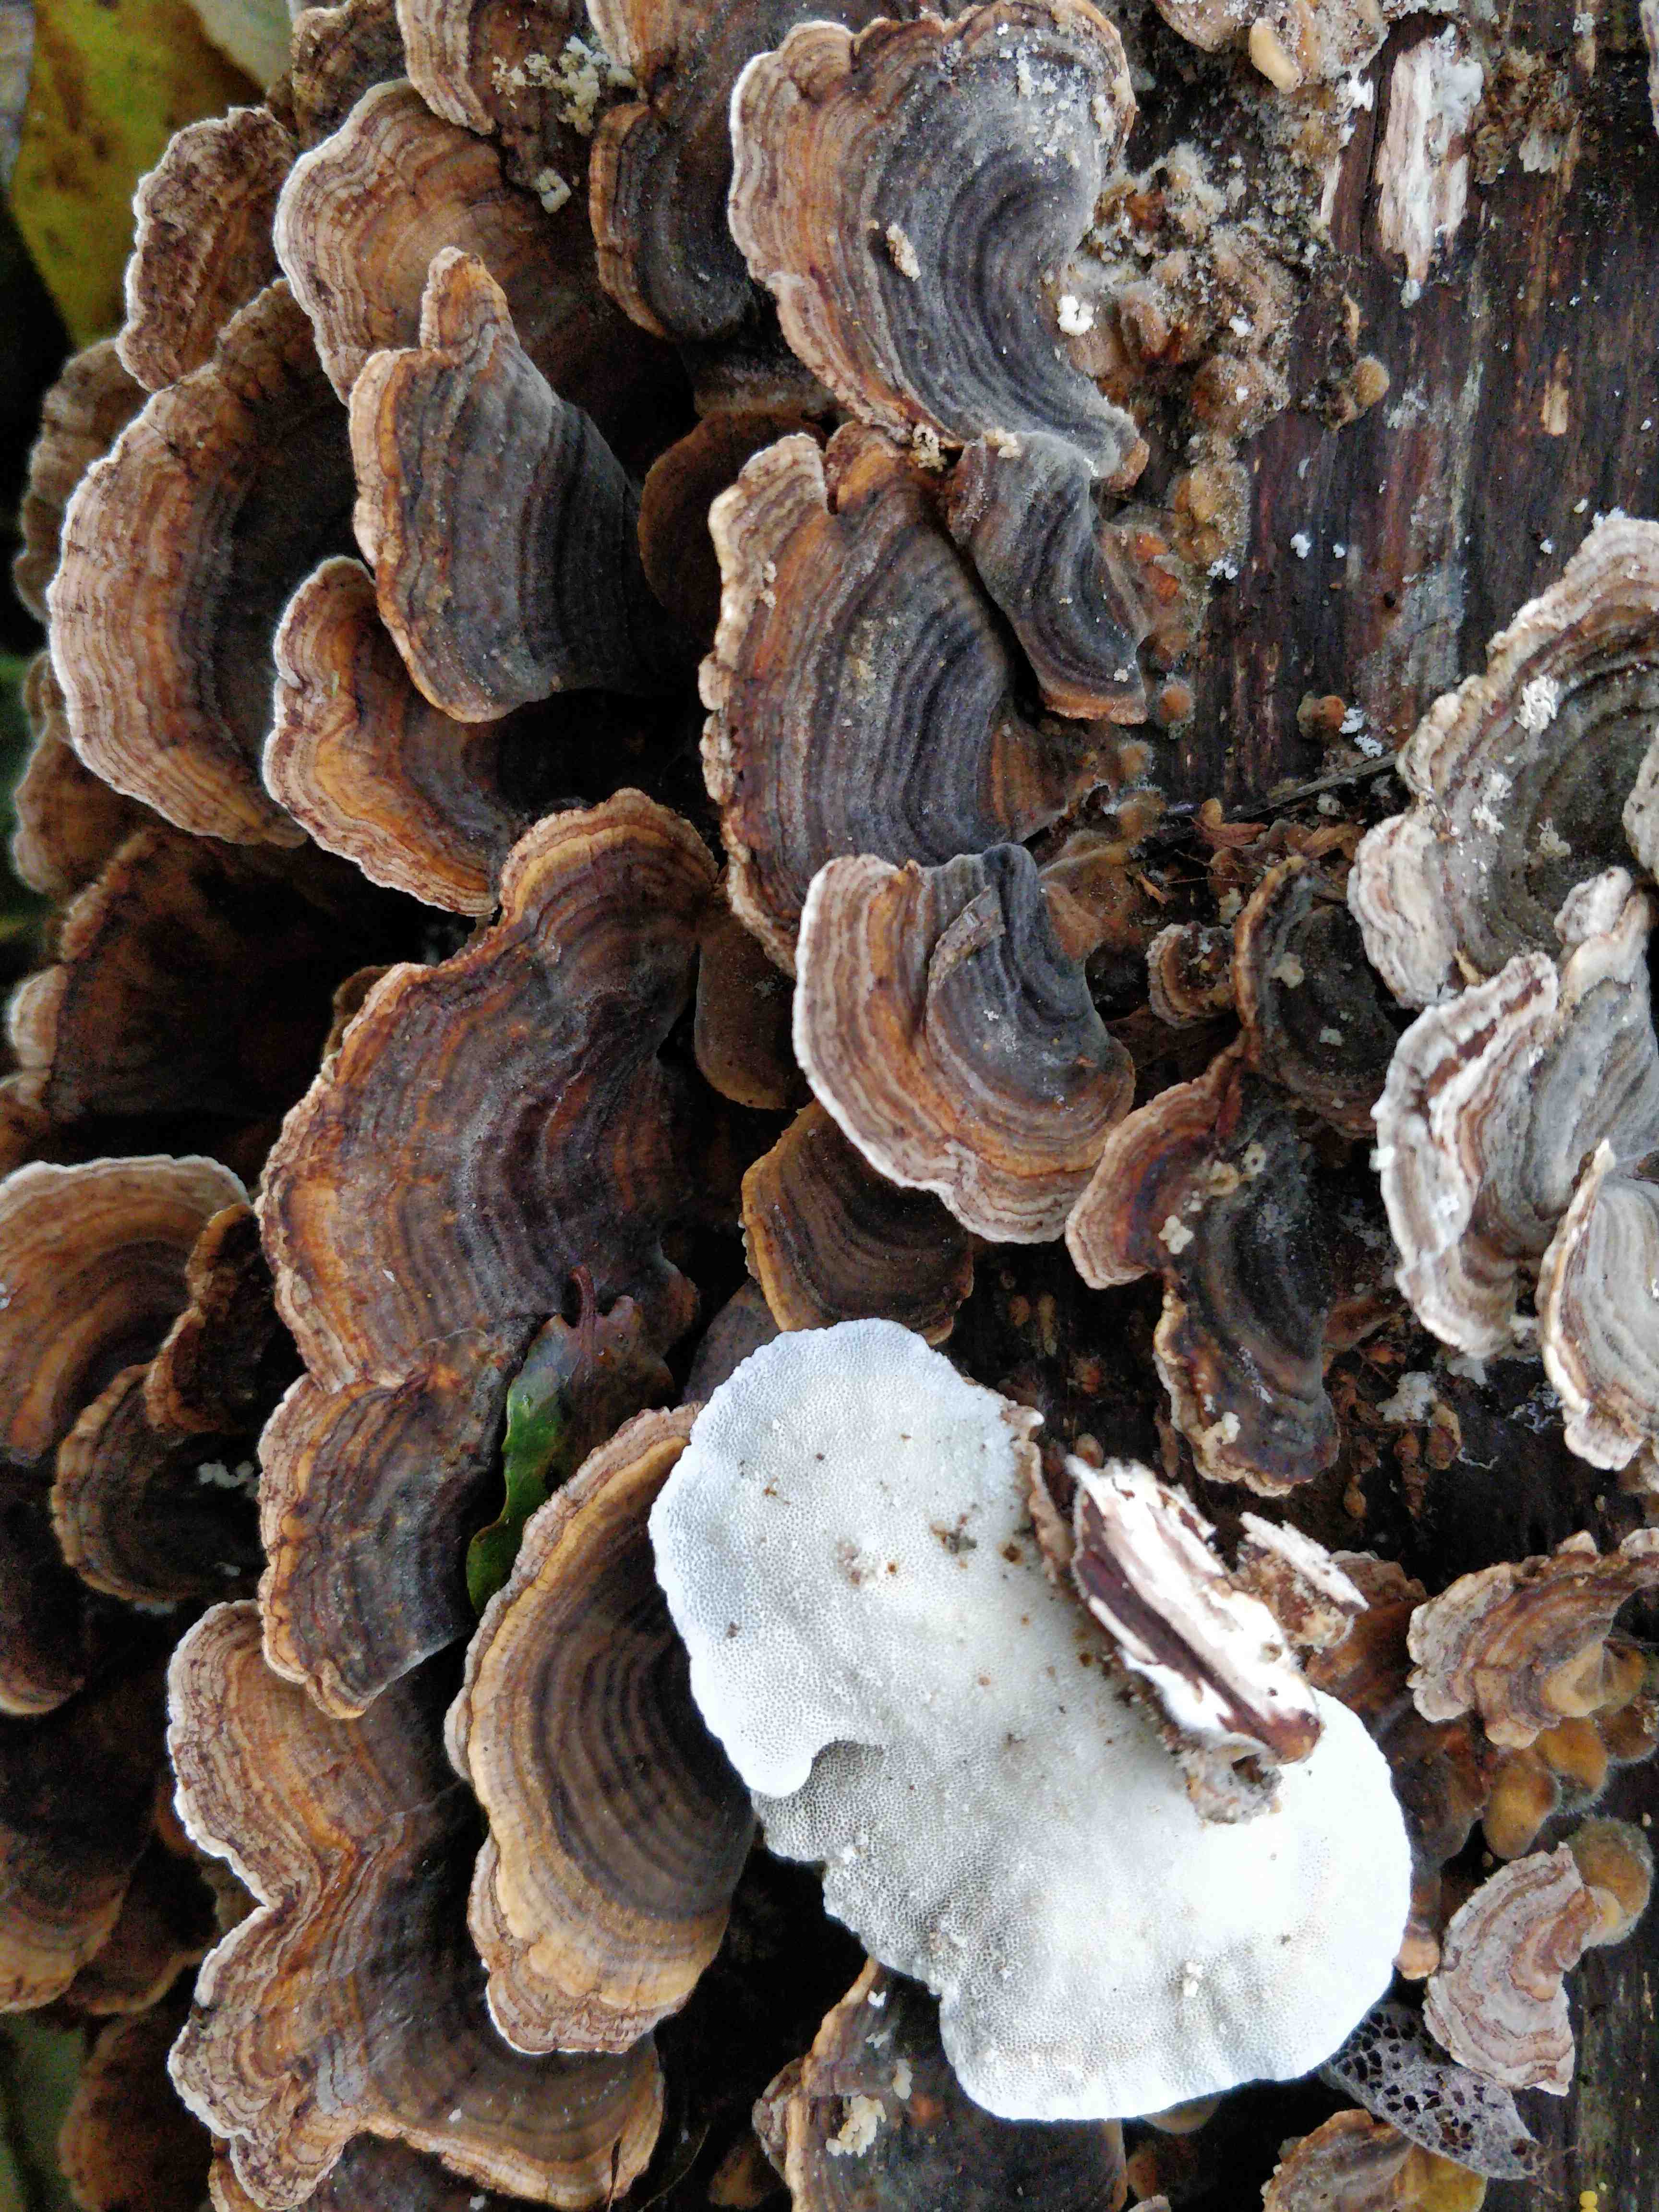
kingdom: Fungi
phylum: Basidiomycota
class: Agaricomycetes
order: Polyporales
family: Polyporaceae
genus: Trametes
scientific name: Trametes versicolor
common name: broget læderporesvamp
